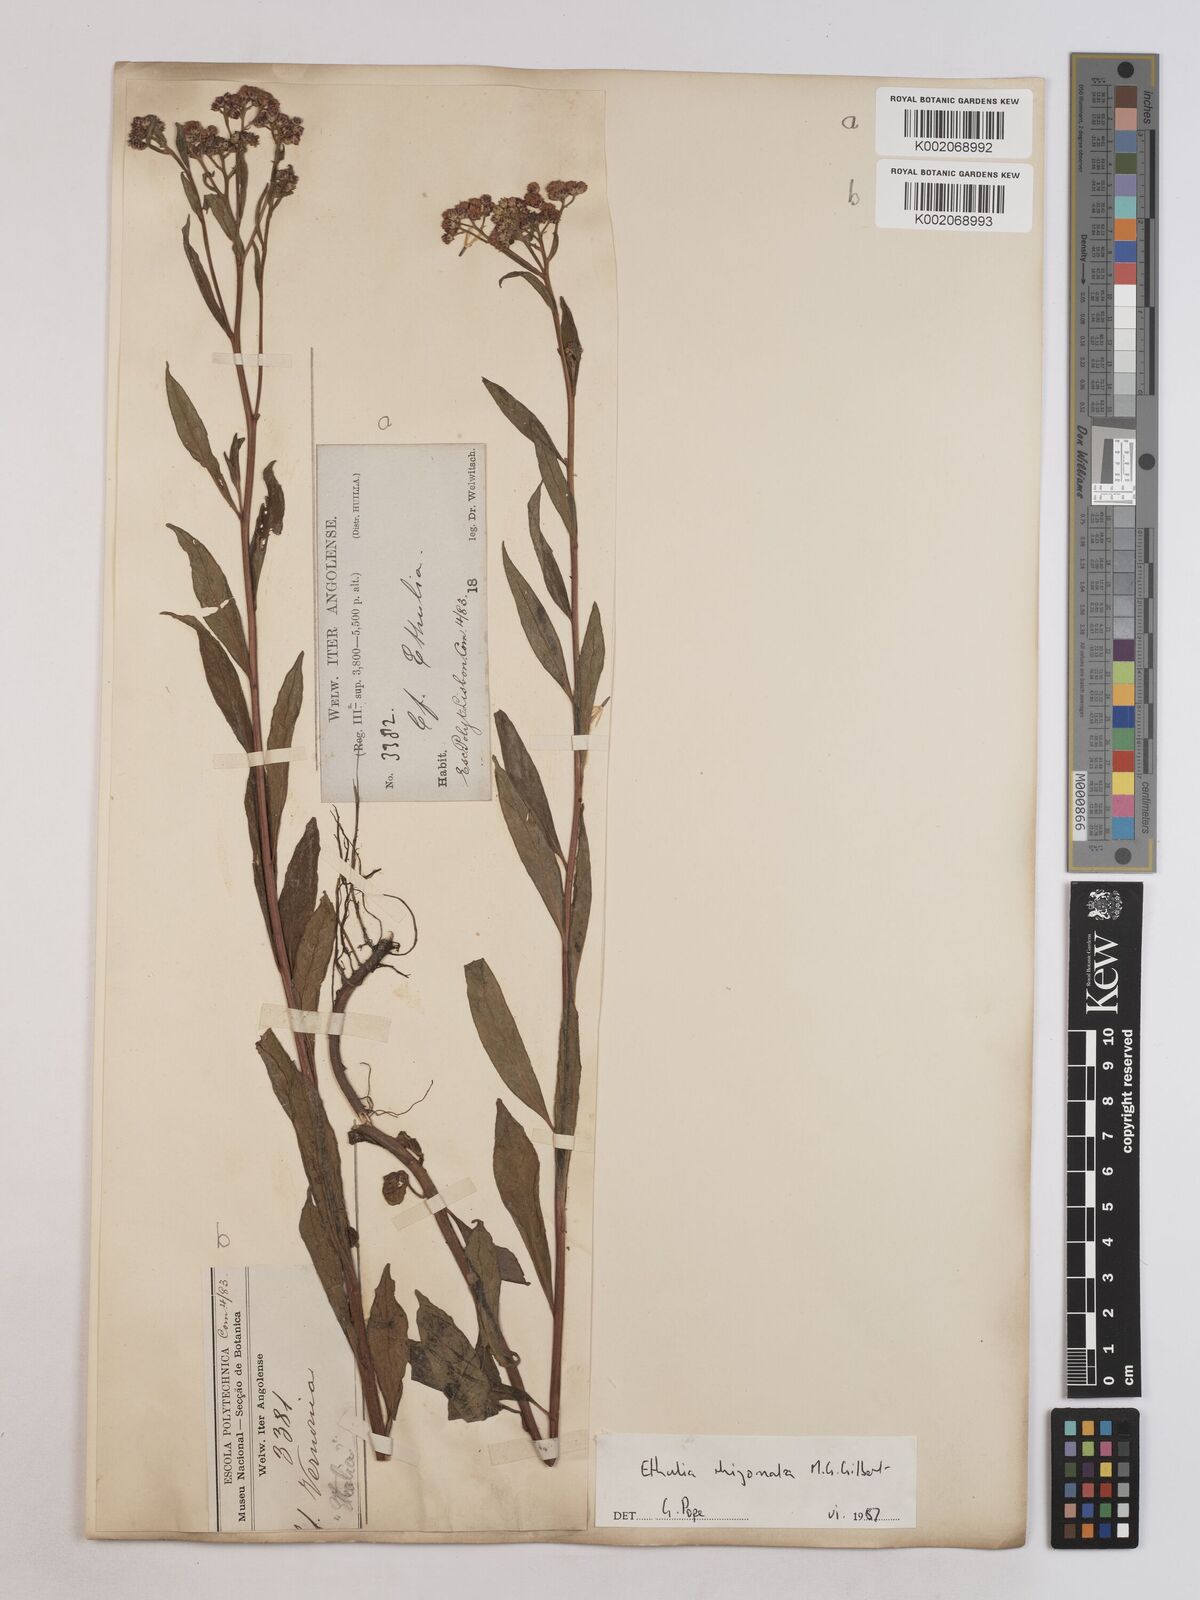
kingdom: Plantae
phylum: Tracheophyta
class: Magnoliopsida
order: Asterales
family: Asteraceae
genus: Ethulia
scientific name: Ethulia rhizomata
